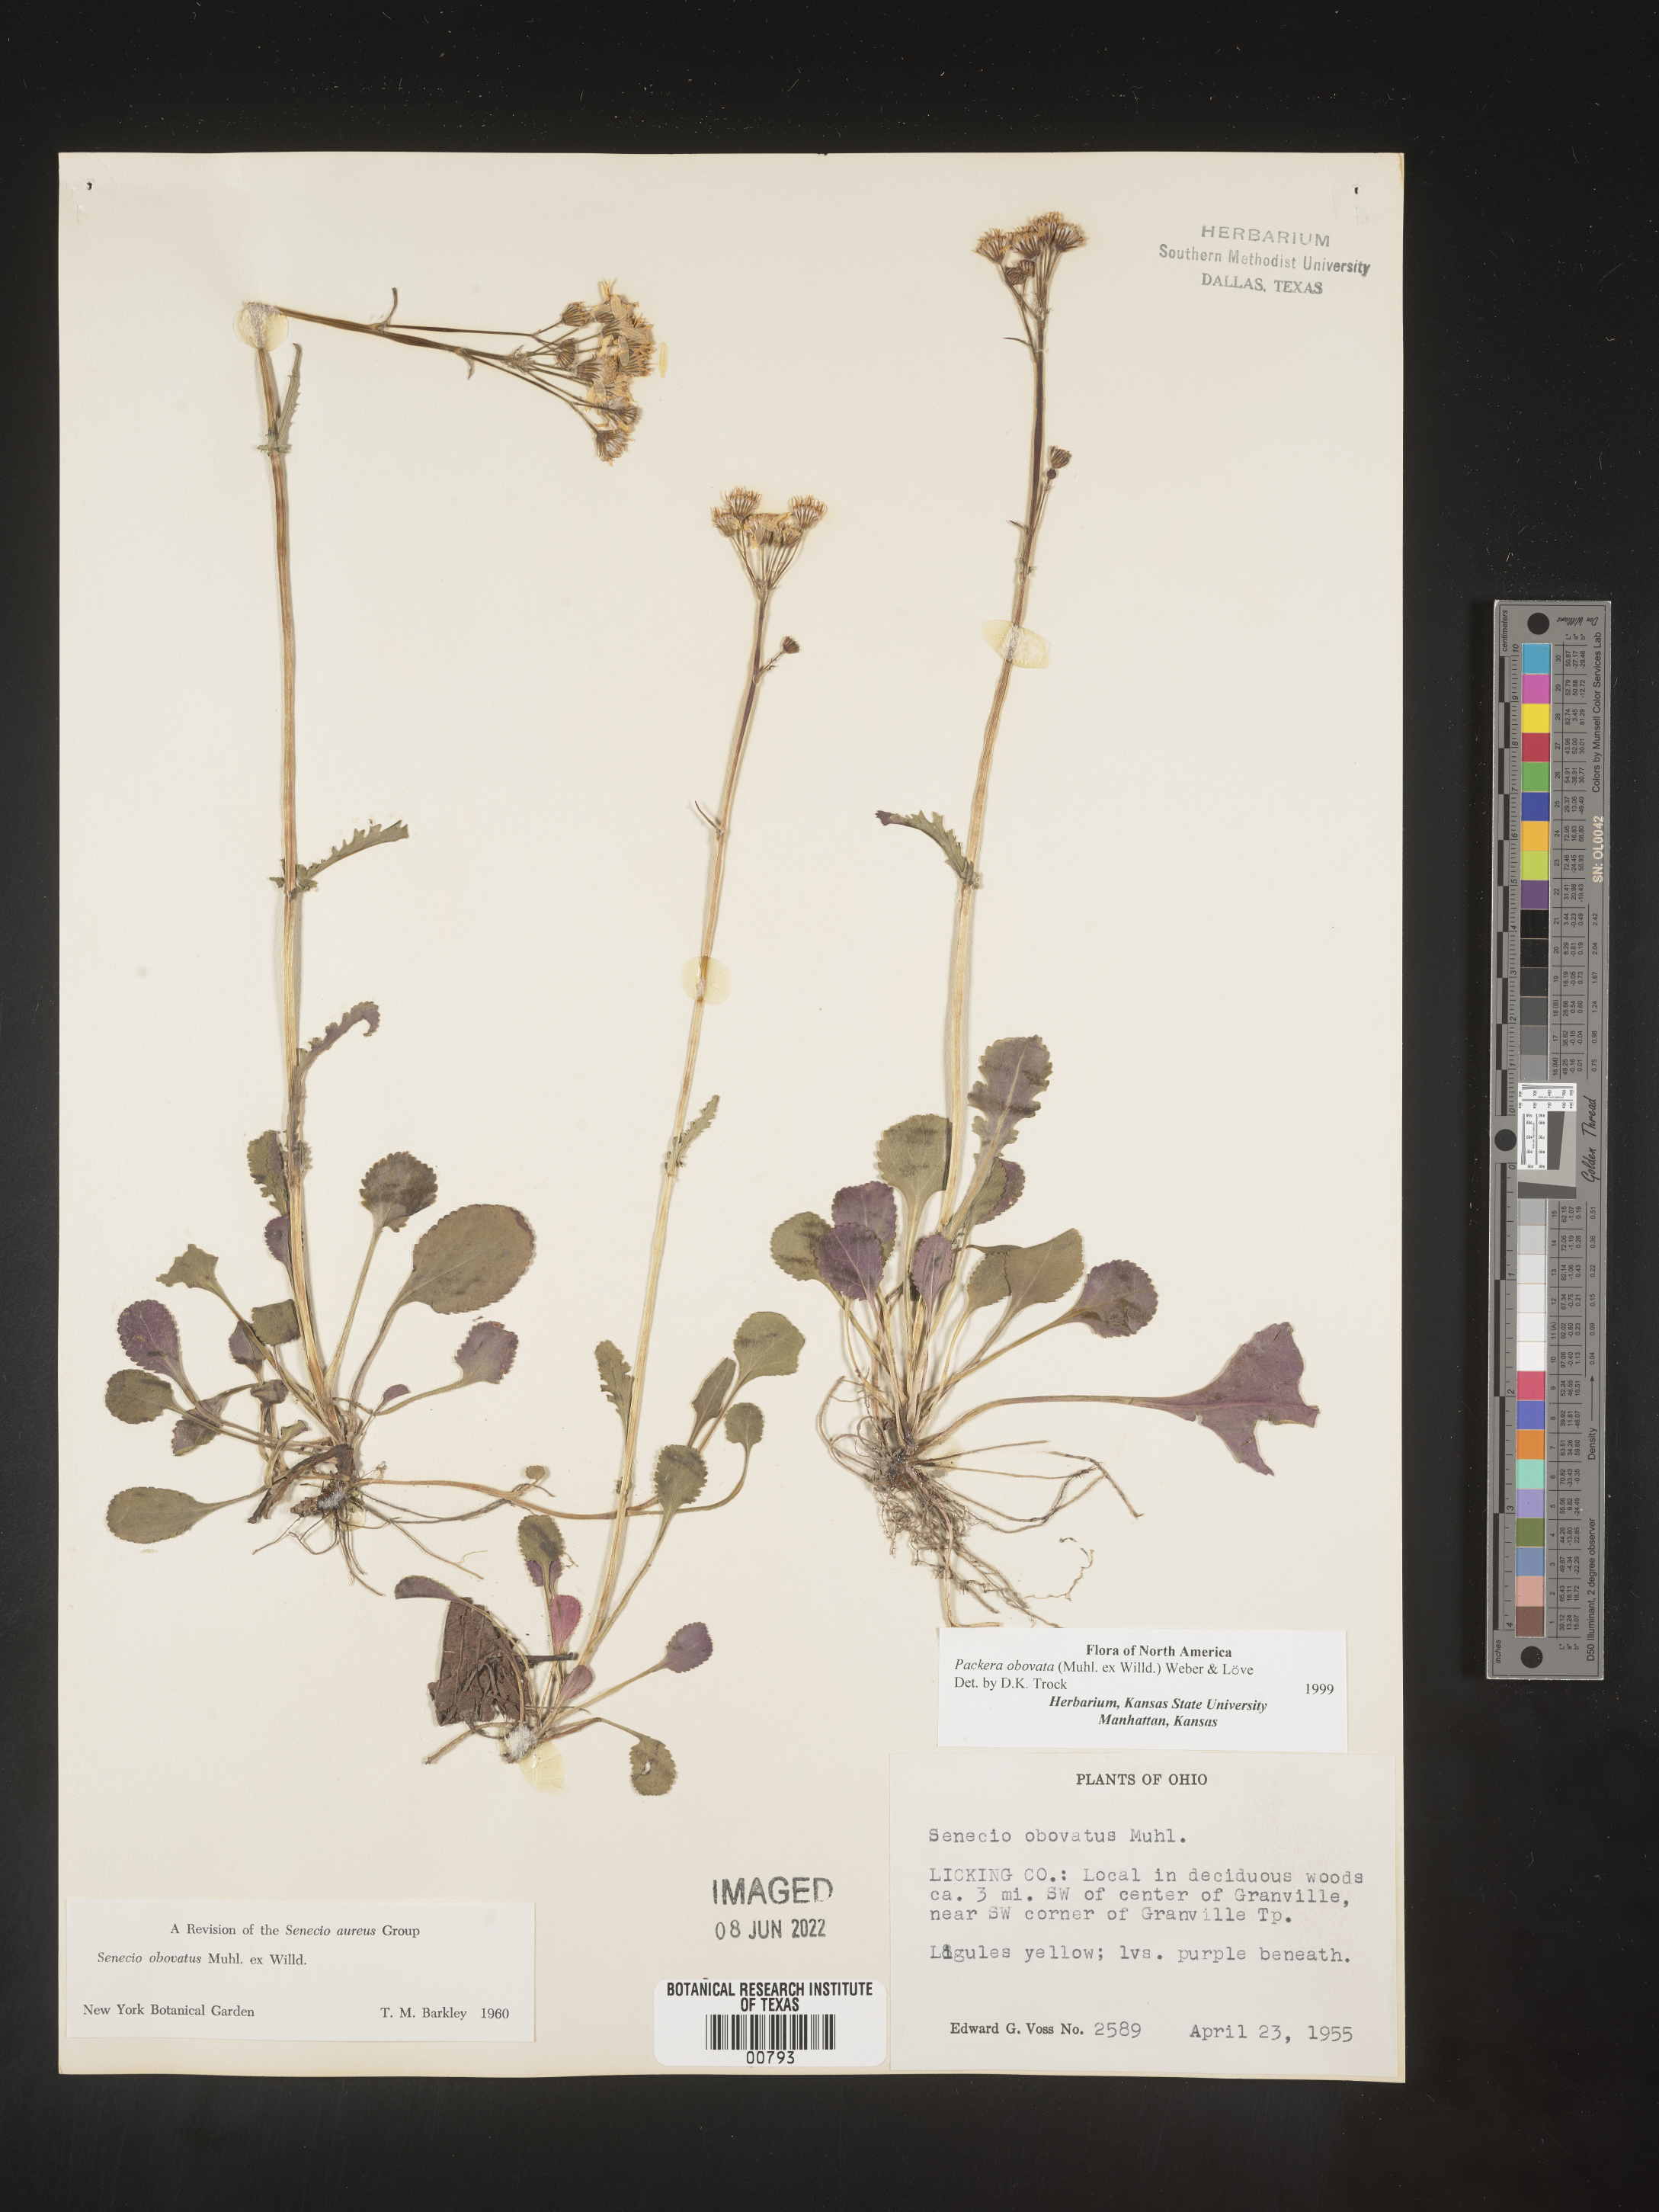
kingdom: Plantae
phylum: Tracheophyta
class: Magnoliopsida
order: Asterales
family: Asteraceae
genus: Packera
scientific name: Packera obovata
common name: Round-leaf ragwort
